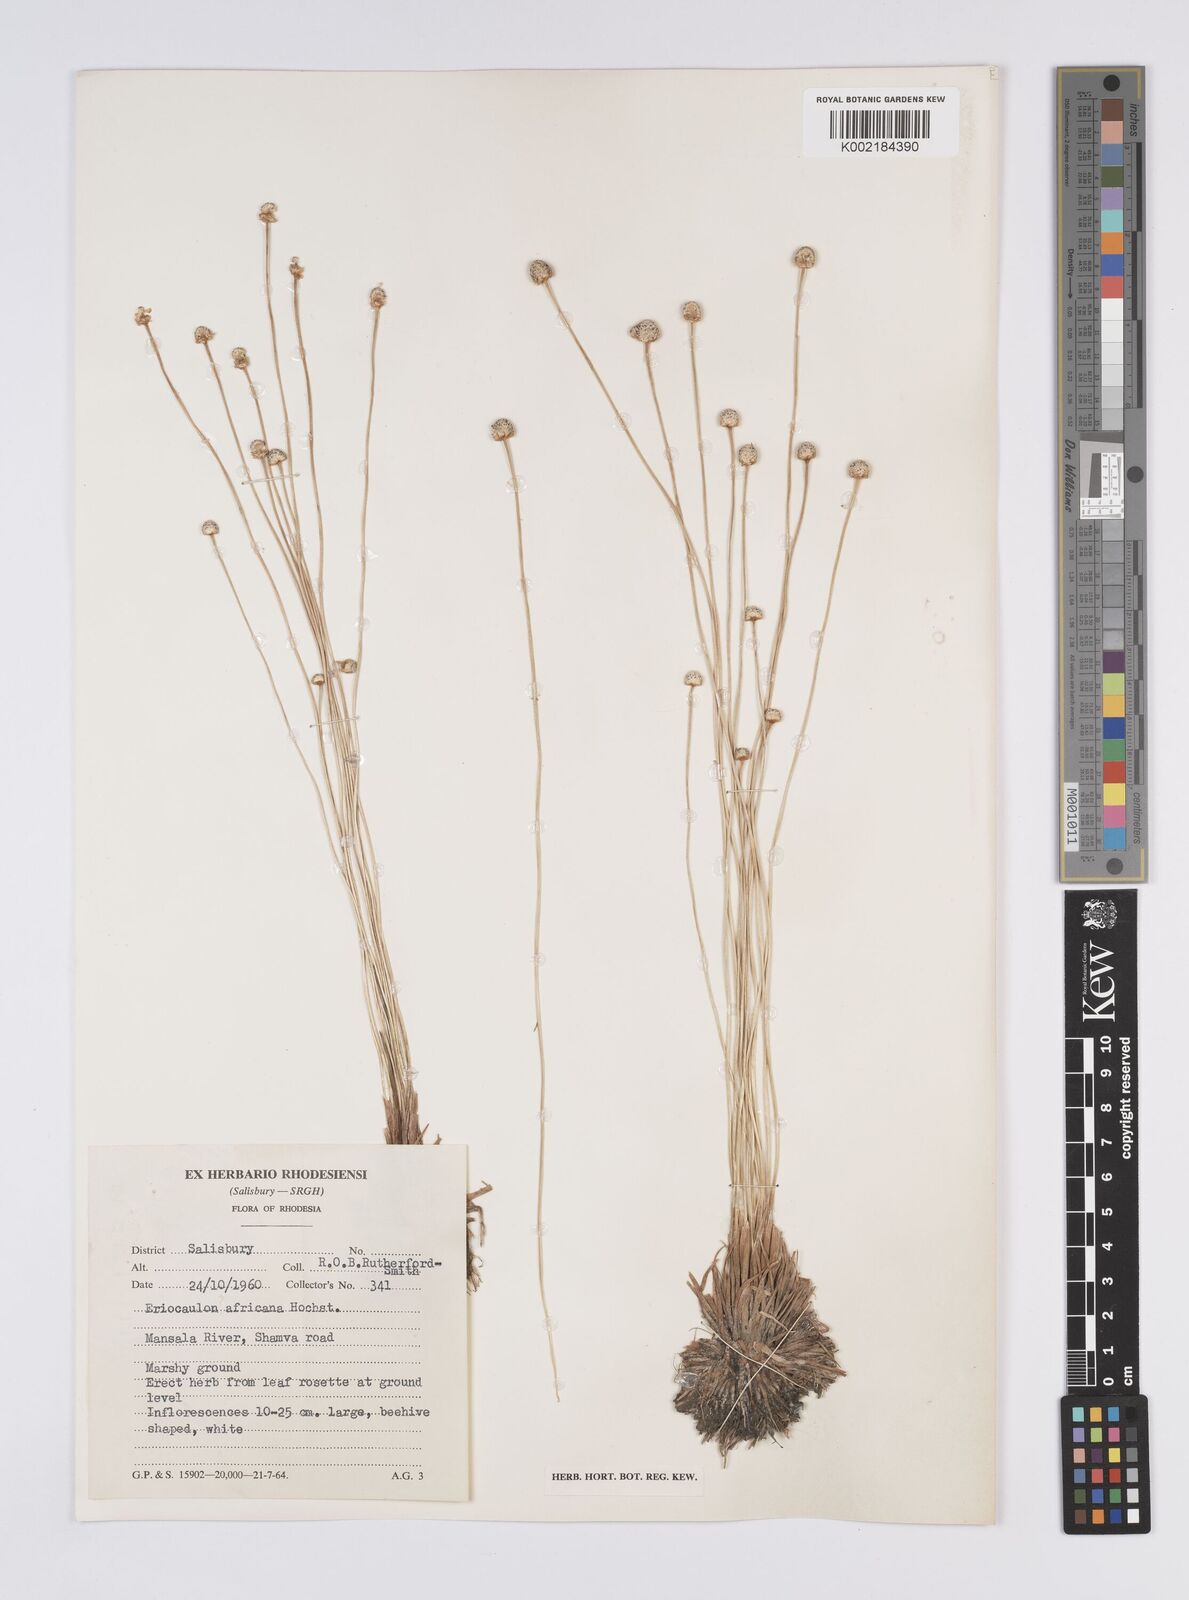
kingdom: Plantae
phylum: Tracheophyta
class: Liliopsida
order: Poales
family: Eriocaulaceae
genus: Eriocaulon
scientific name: Eriocaulon africanum
